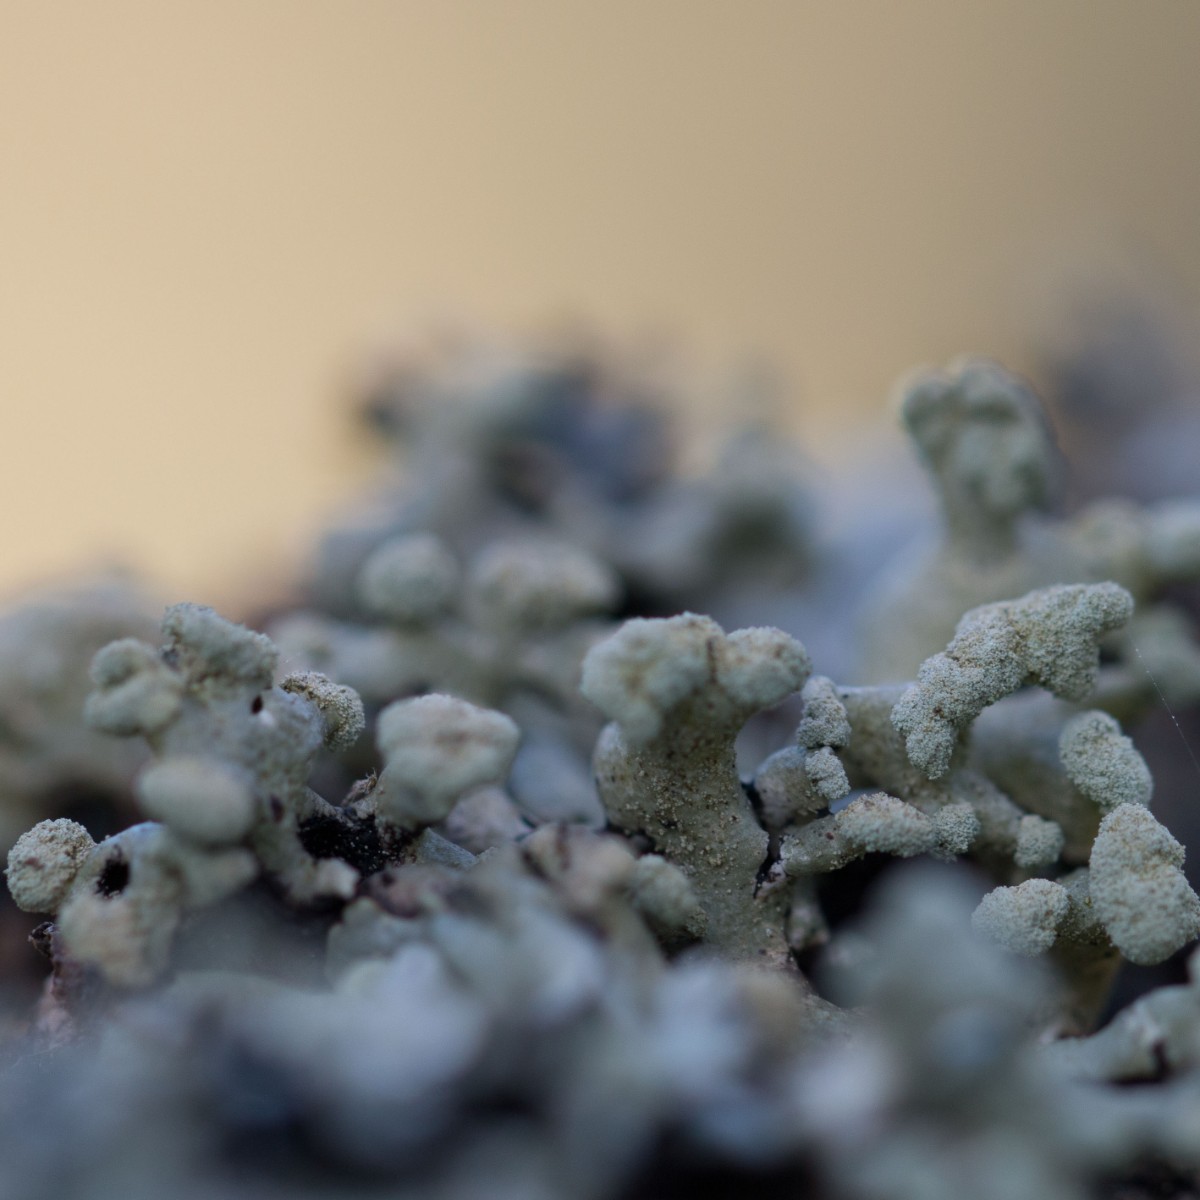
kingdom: Fungi
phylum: Ascomycota
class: Lecanoromycetes
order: Lecanorales
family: Parmeliaceae
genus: Hypogymnia
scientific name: Hypogymnia tubulosa
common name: finger-kvistlav
